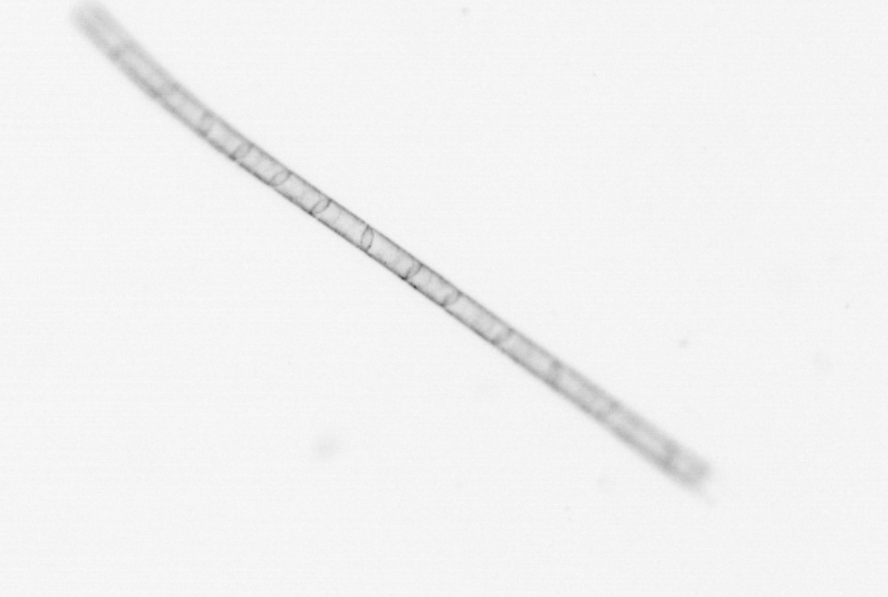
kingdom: Chromista
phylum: Ochrophyta
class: Bacillariophyceae
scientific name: Bacillariophyceae
